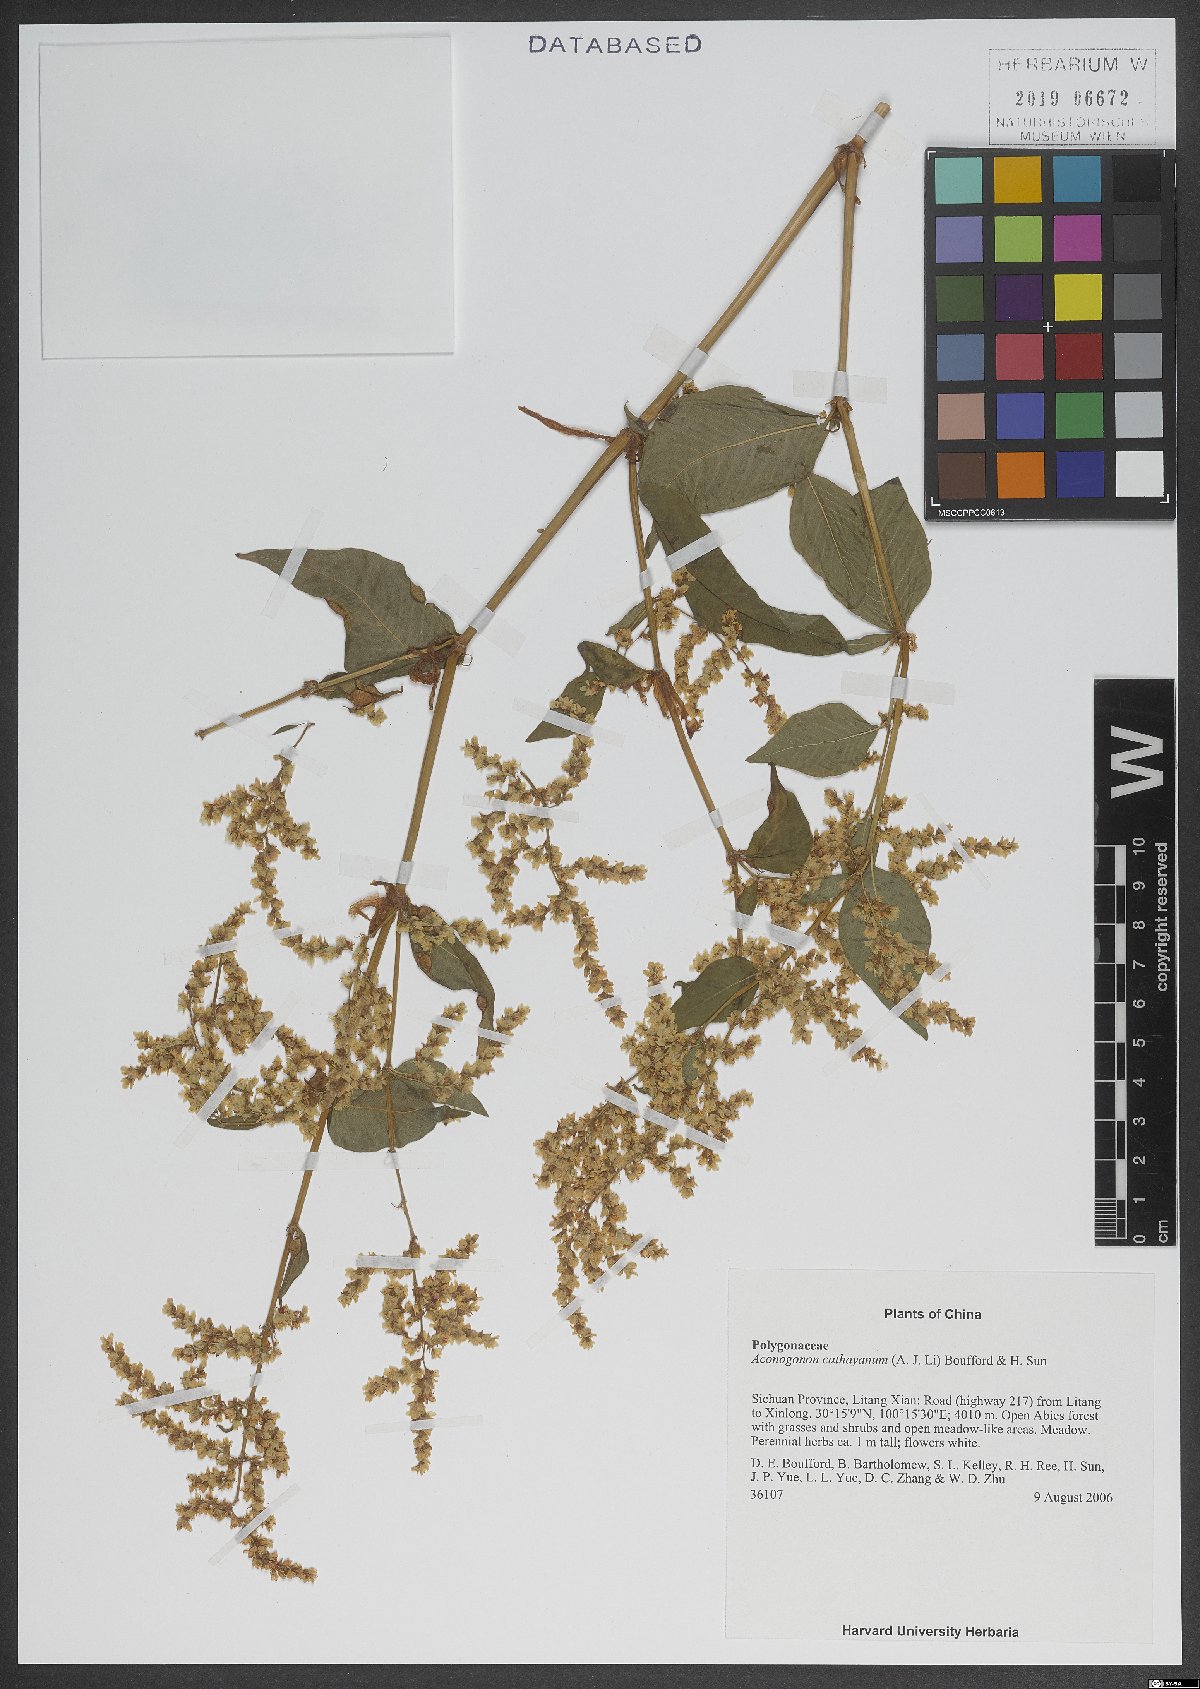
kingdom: Plantae
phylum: Tracheophyta
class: Magnoliopsida
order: Caryophyllales
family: Polygonaceae
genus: Koenigia
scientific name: Koenigia cathayana
